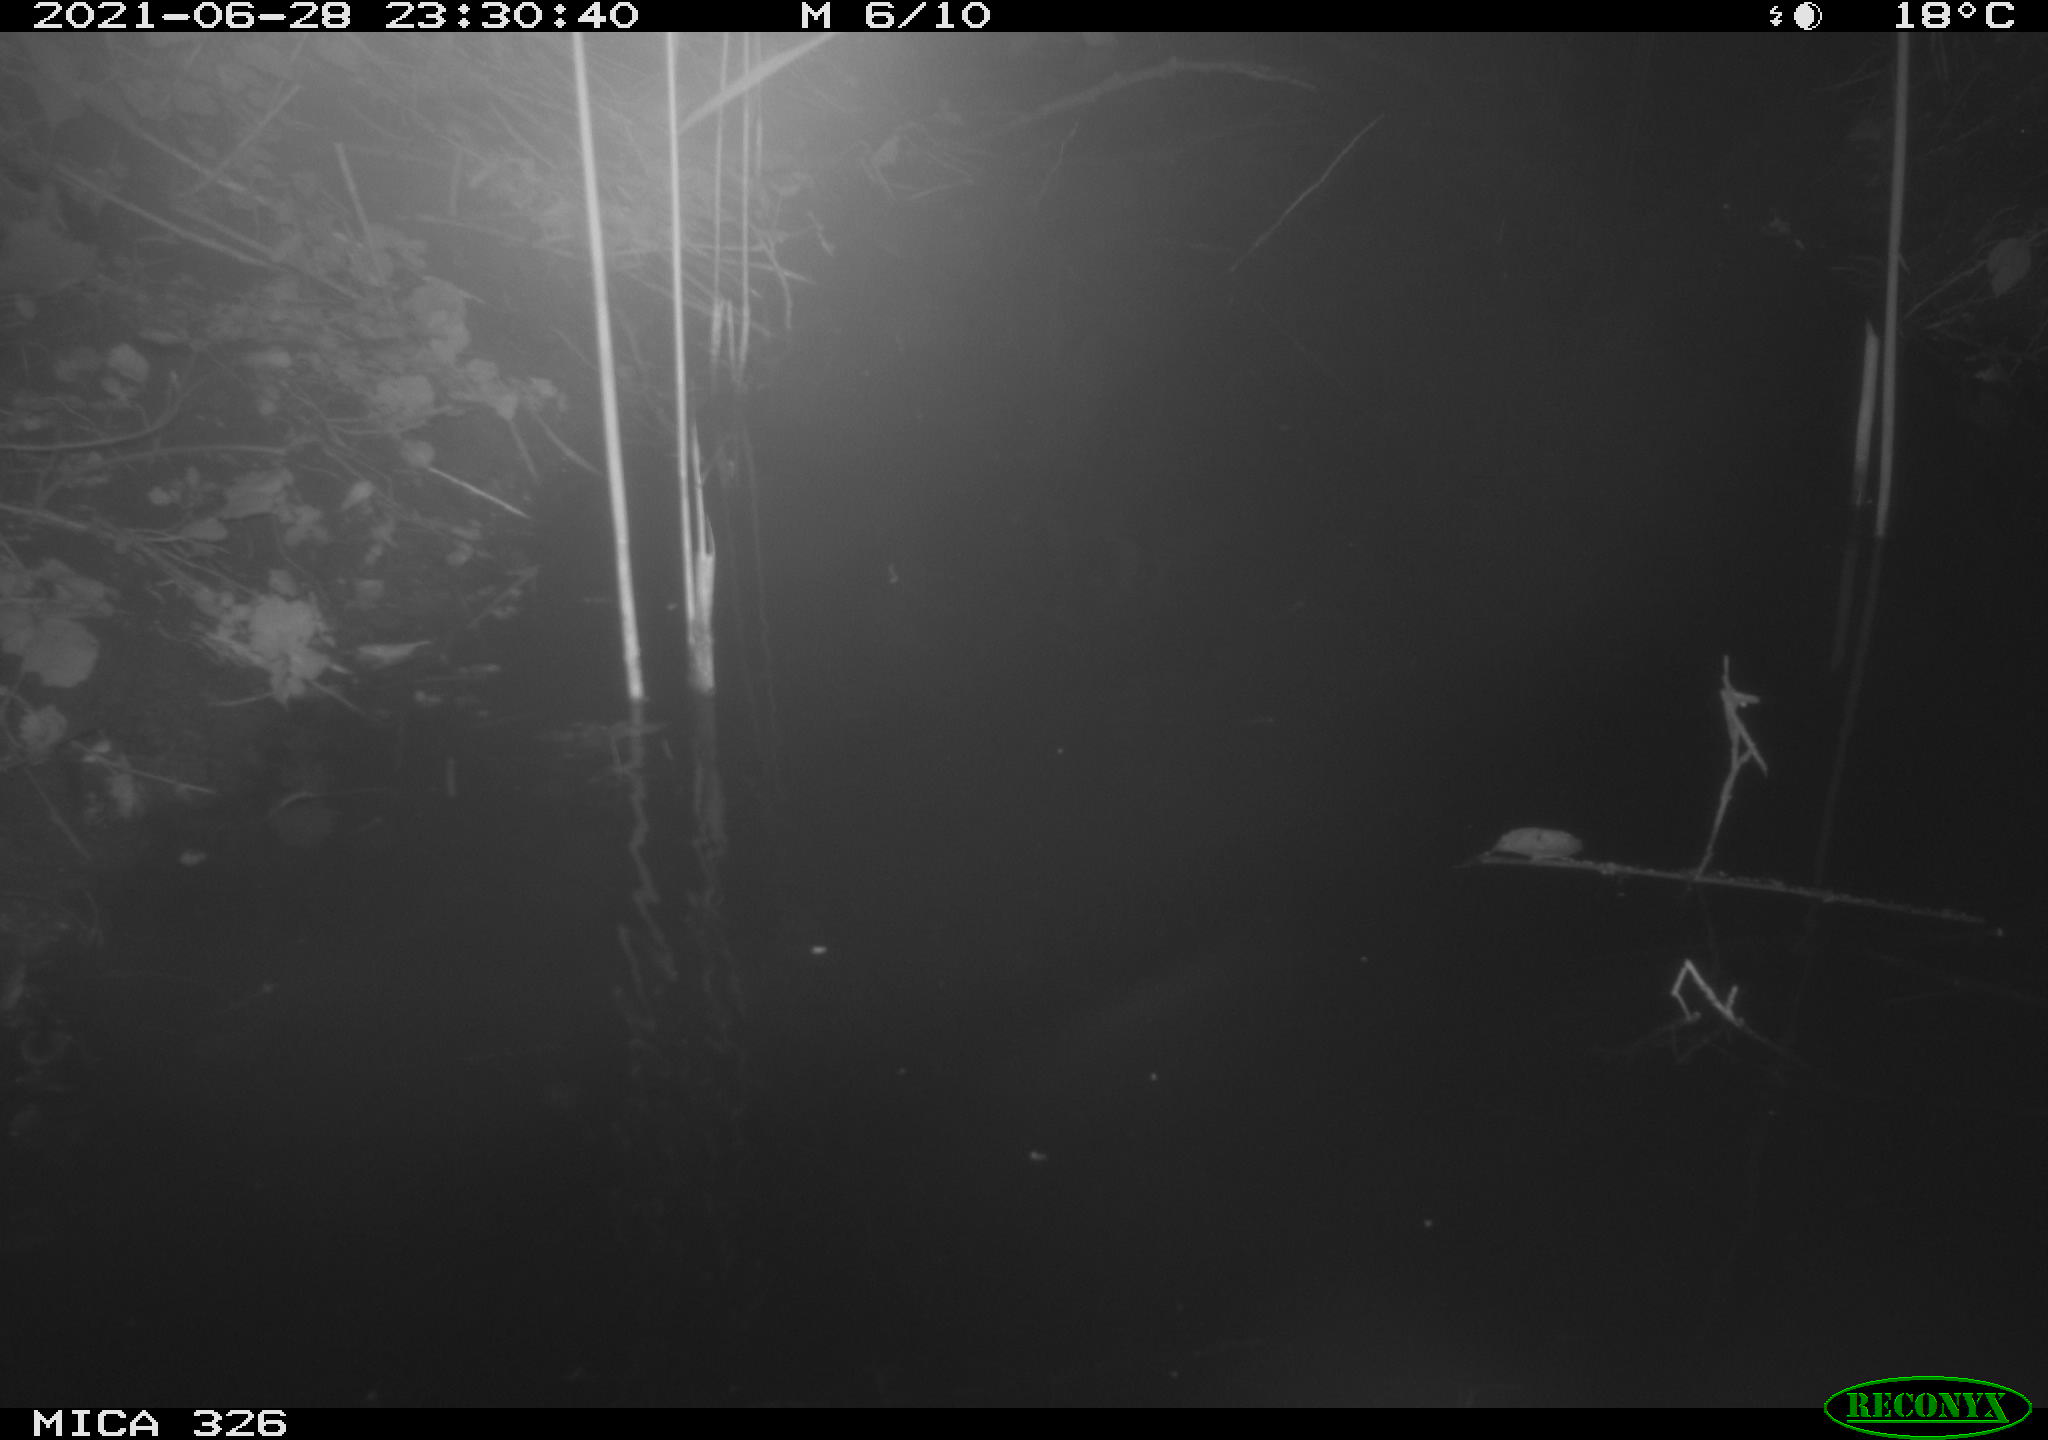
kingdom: Animalia
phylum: Chordata
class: Mammalia
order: Rodentia
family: Muridae
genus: Rattus
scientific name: Rattus norvegicus
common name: Brown rat
